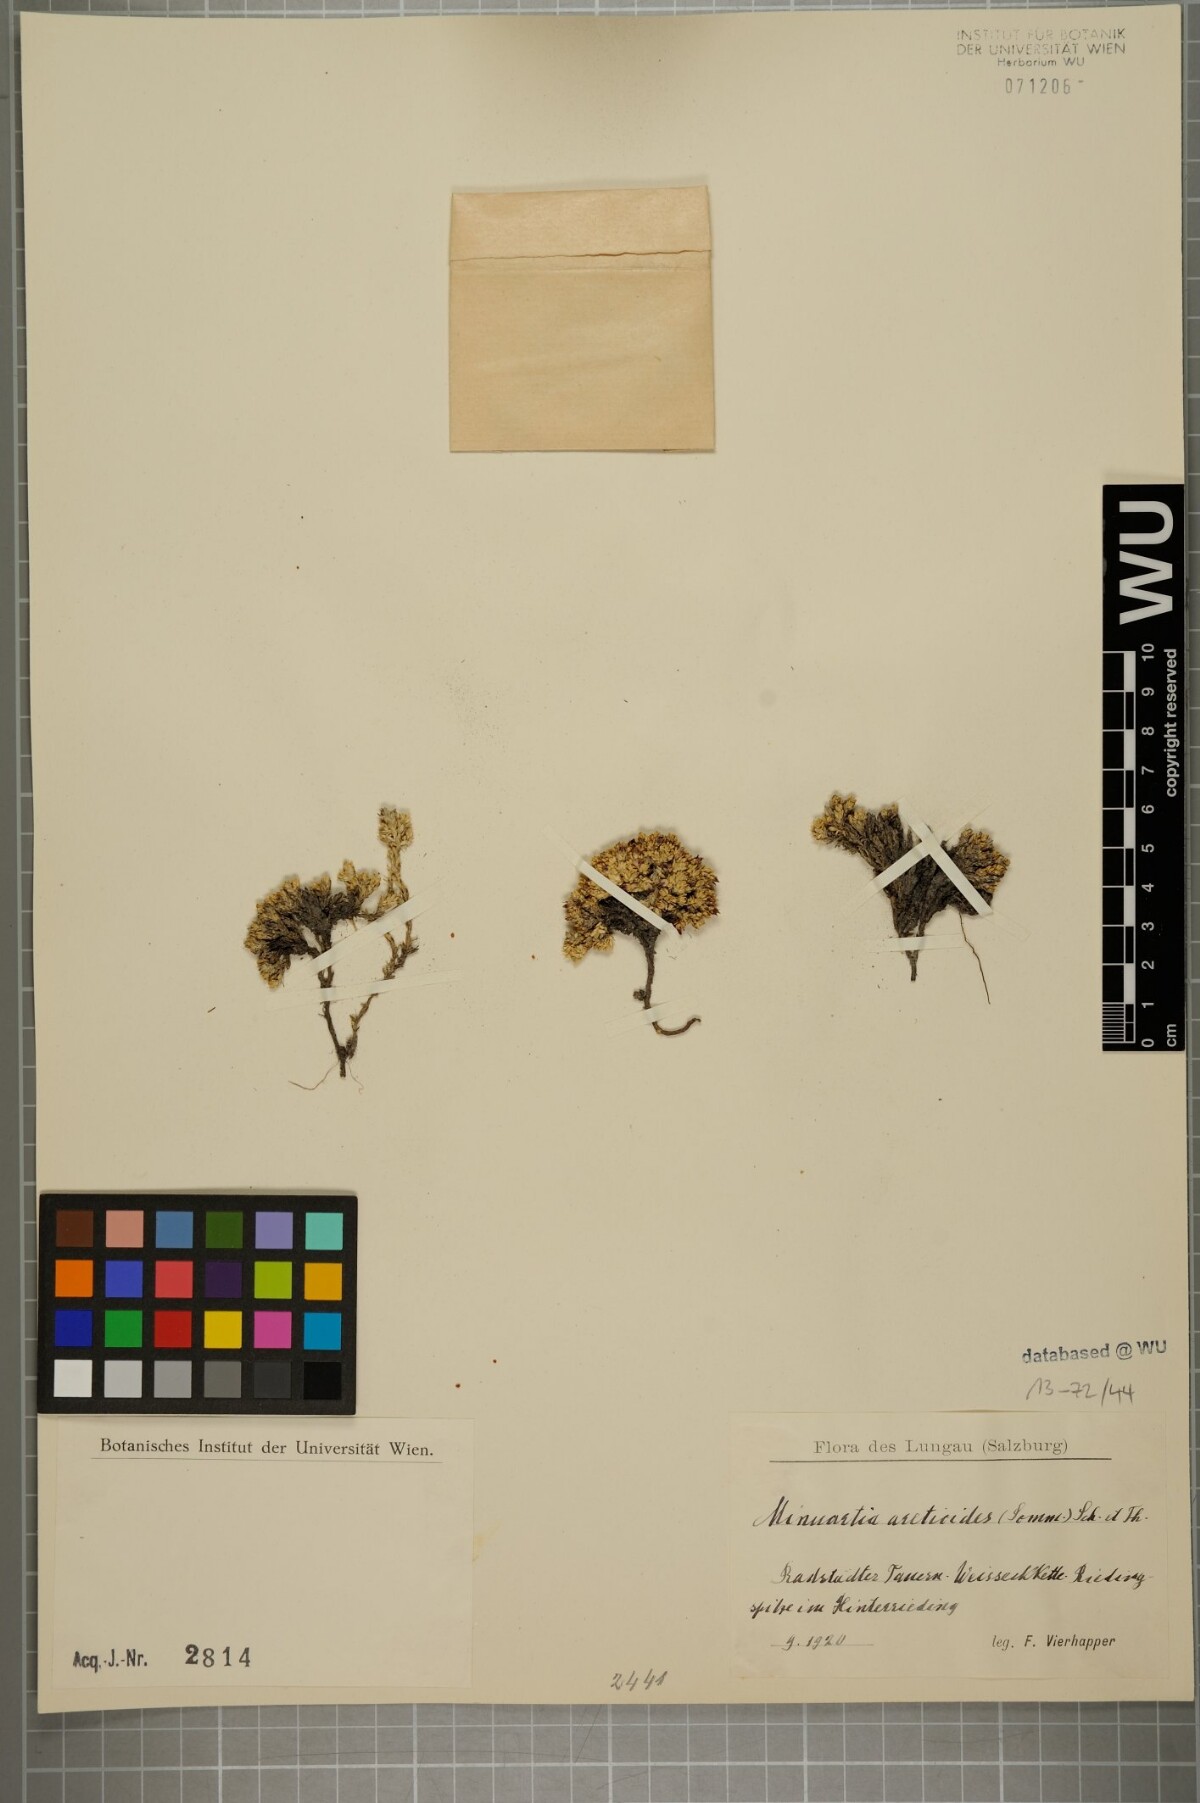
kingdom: Plantae
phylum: Tracheophyta
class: Magnoliopsida
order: Caryophyllales
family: Caryophyllaceae
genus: Facchinia
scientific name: Facchinia cherlerioides
